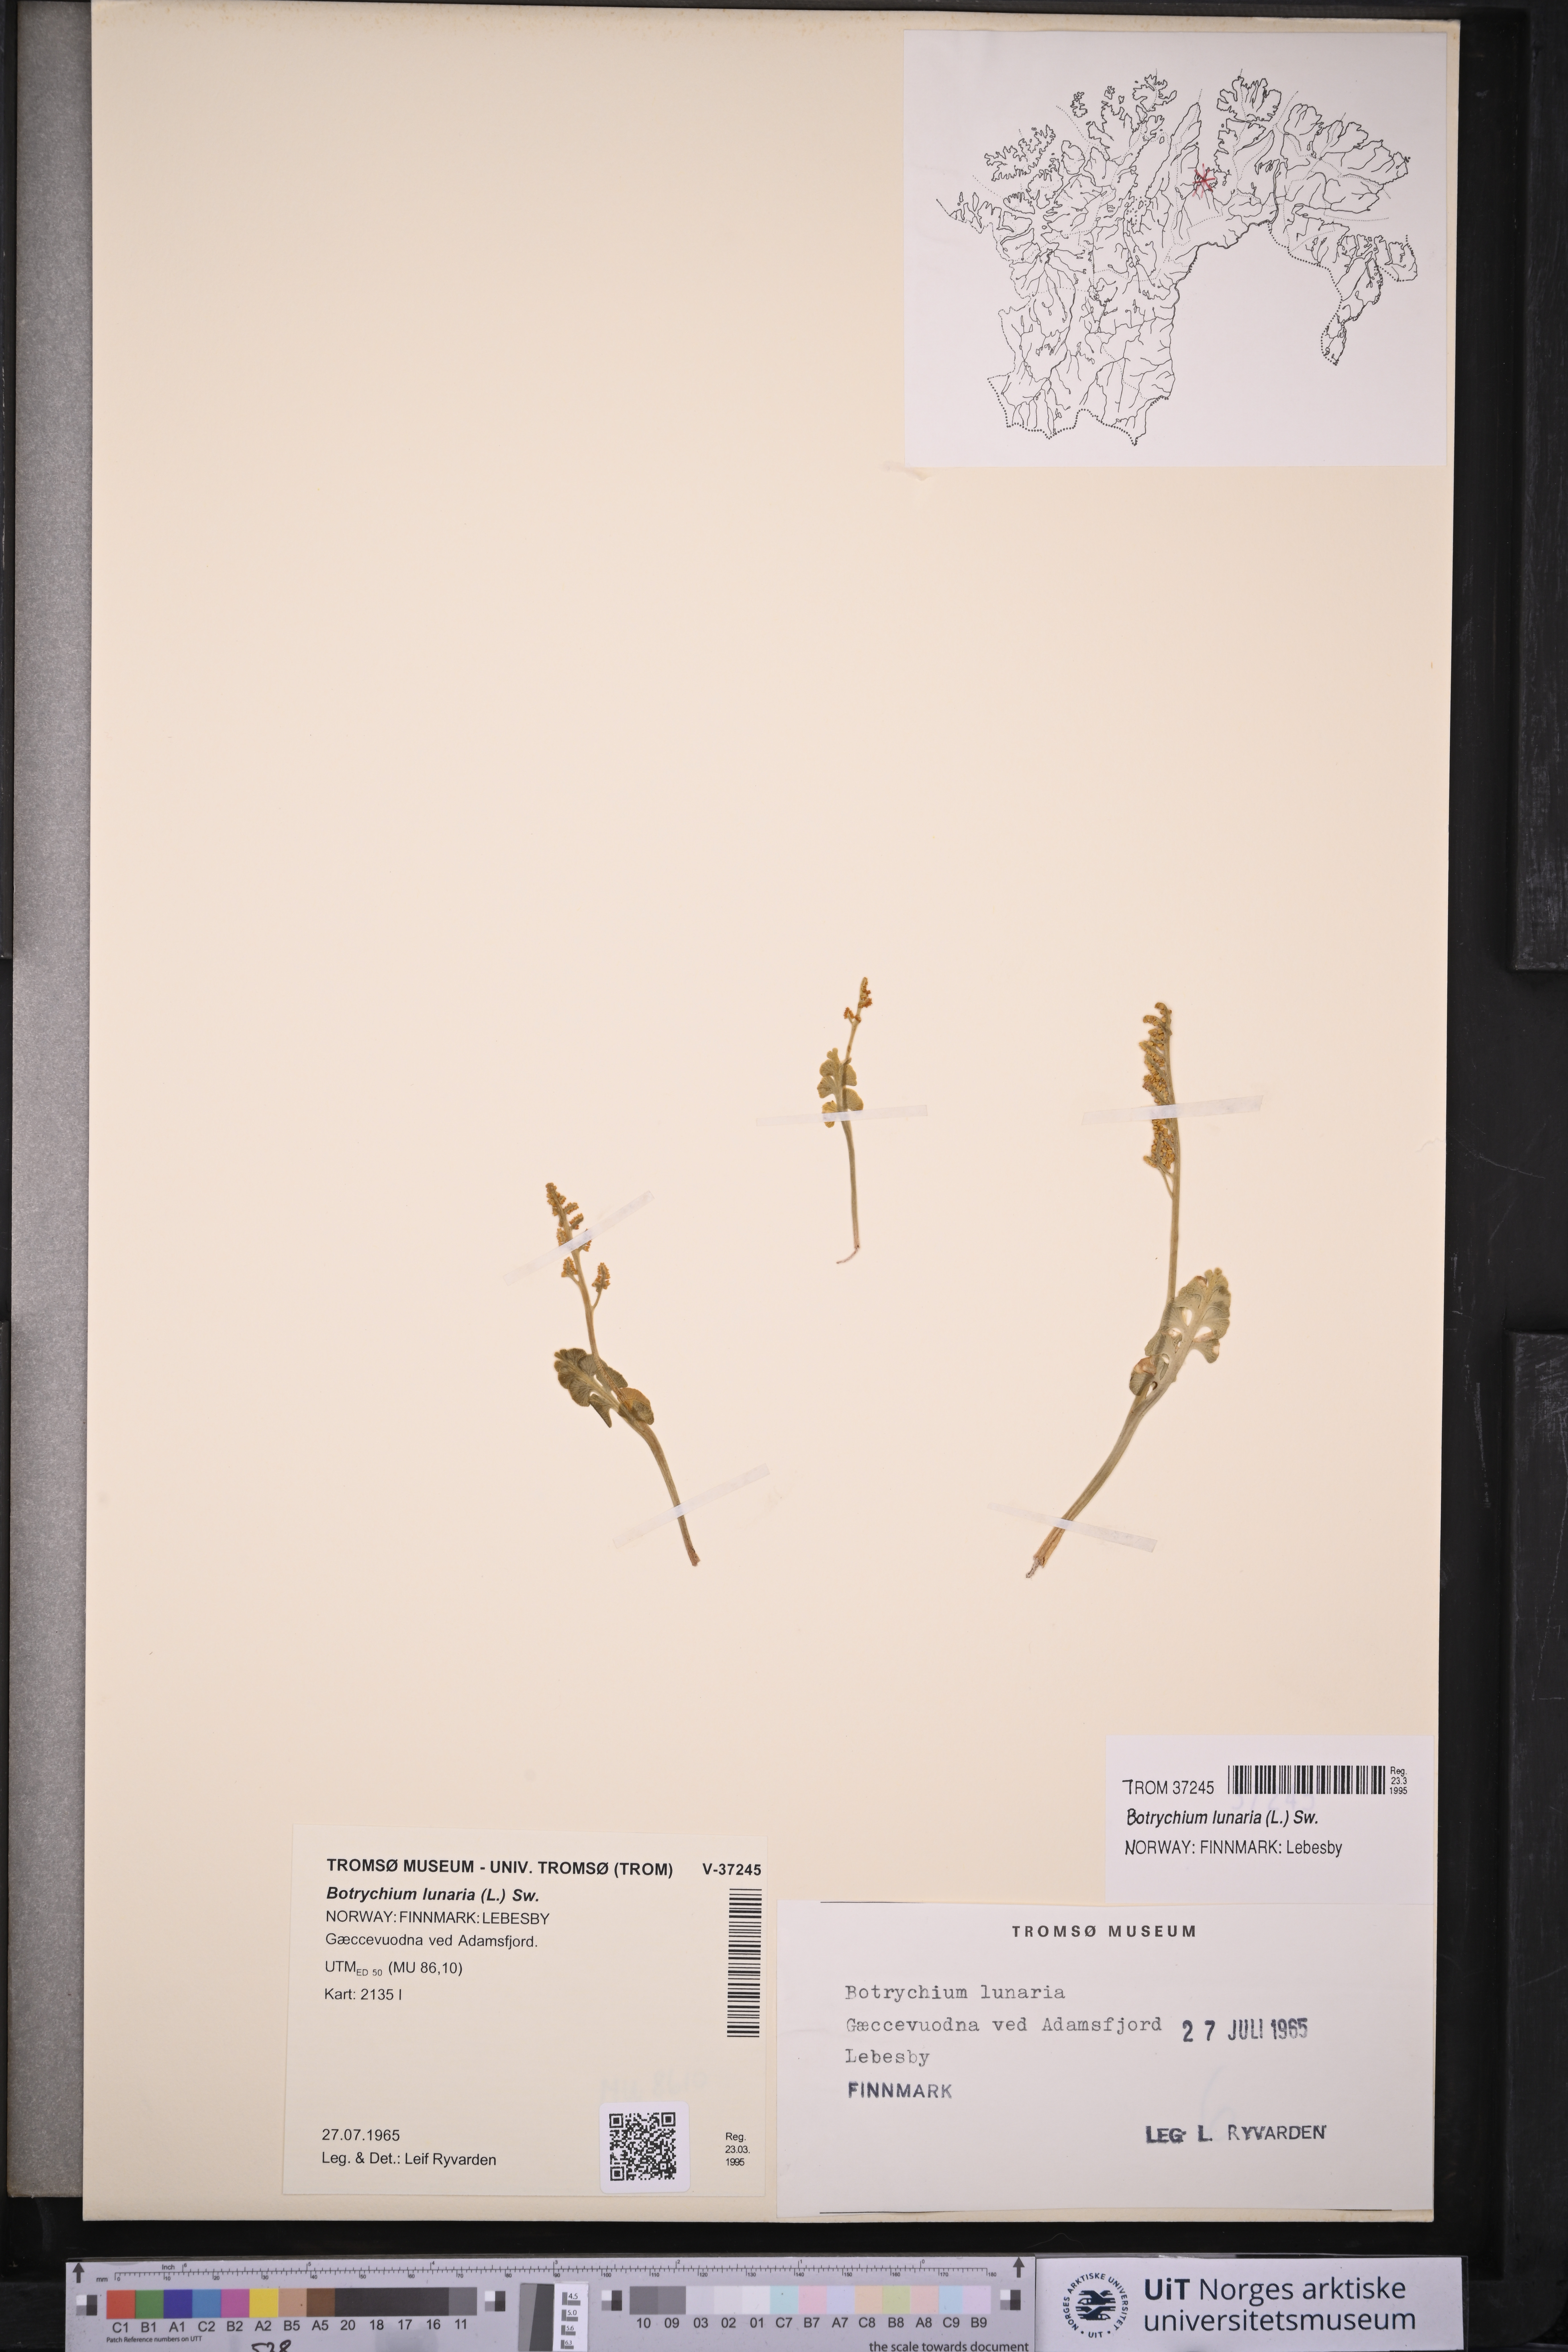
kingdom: Plantae
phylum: Tracheophyta
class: Polypodiopsida
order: Ophioglossales
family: Ophioglossaceae
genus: Botrychium
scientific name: Botrychium lunaria
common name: Moonwort
